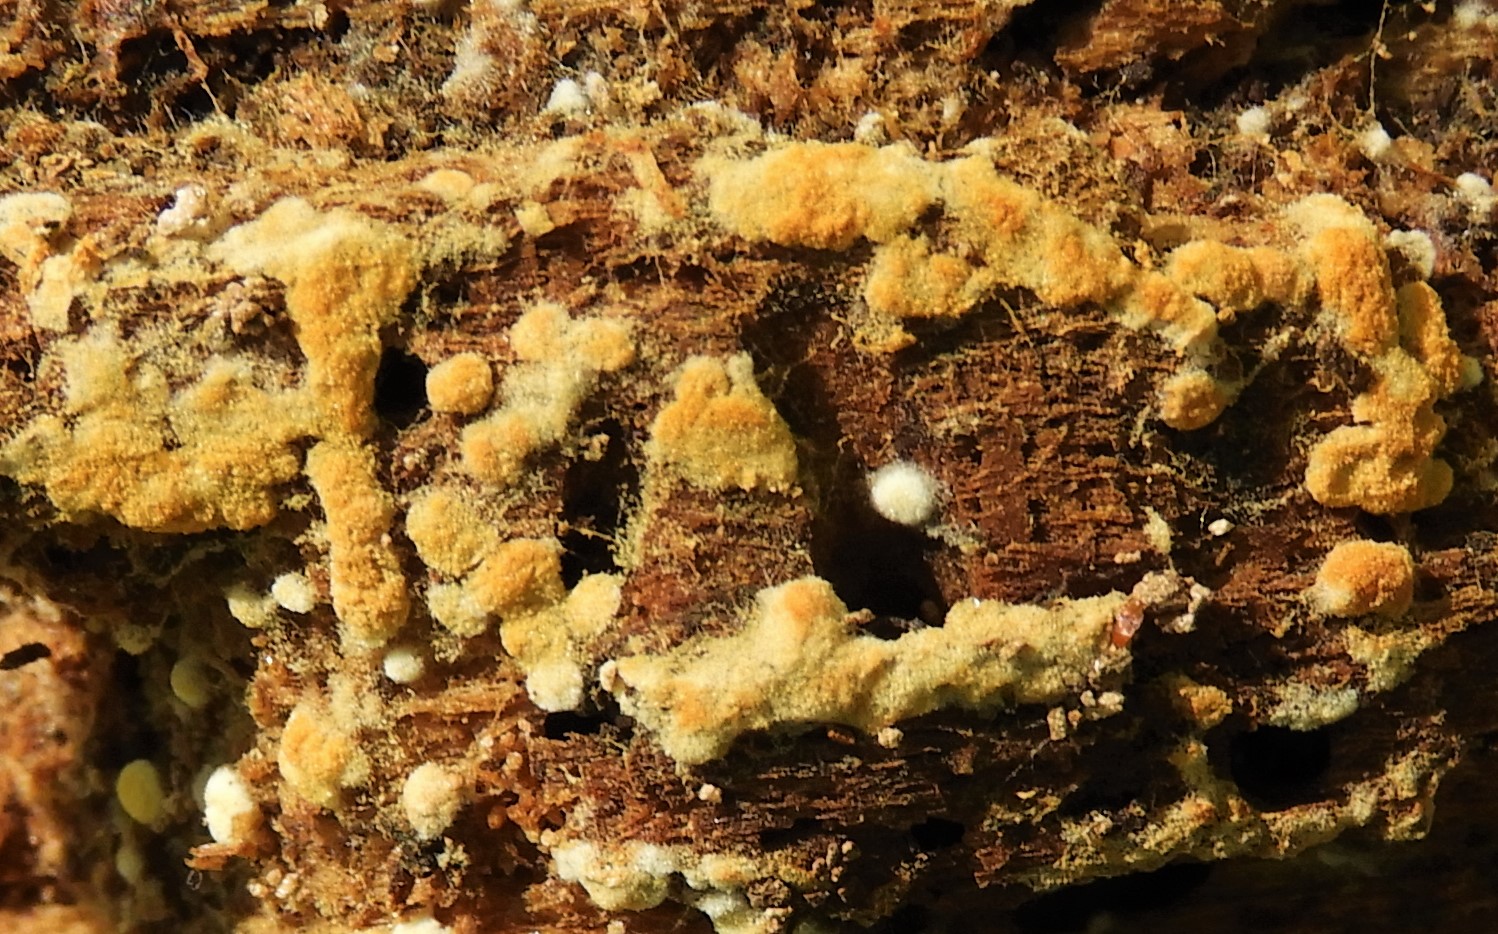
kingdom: Fungi
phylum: Basidiomycota
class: Agaricomycetes
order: Cantharellales
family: Botryobasidiaceae
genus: Botryobasidium
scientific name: Botryobasidium aureum
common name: gylden spindhinde
